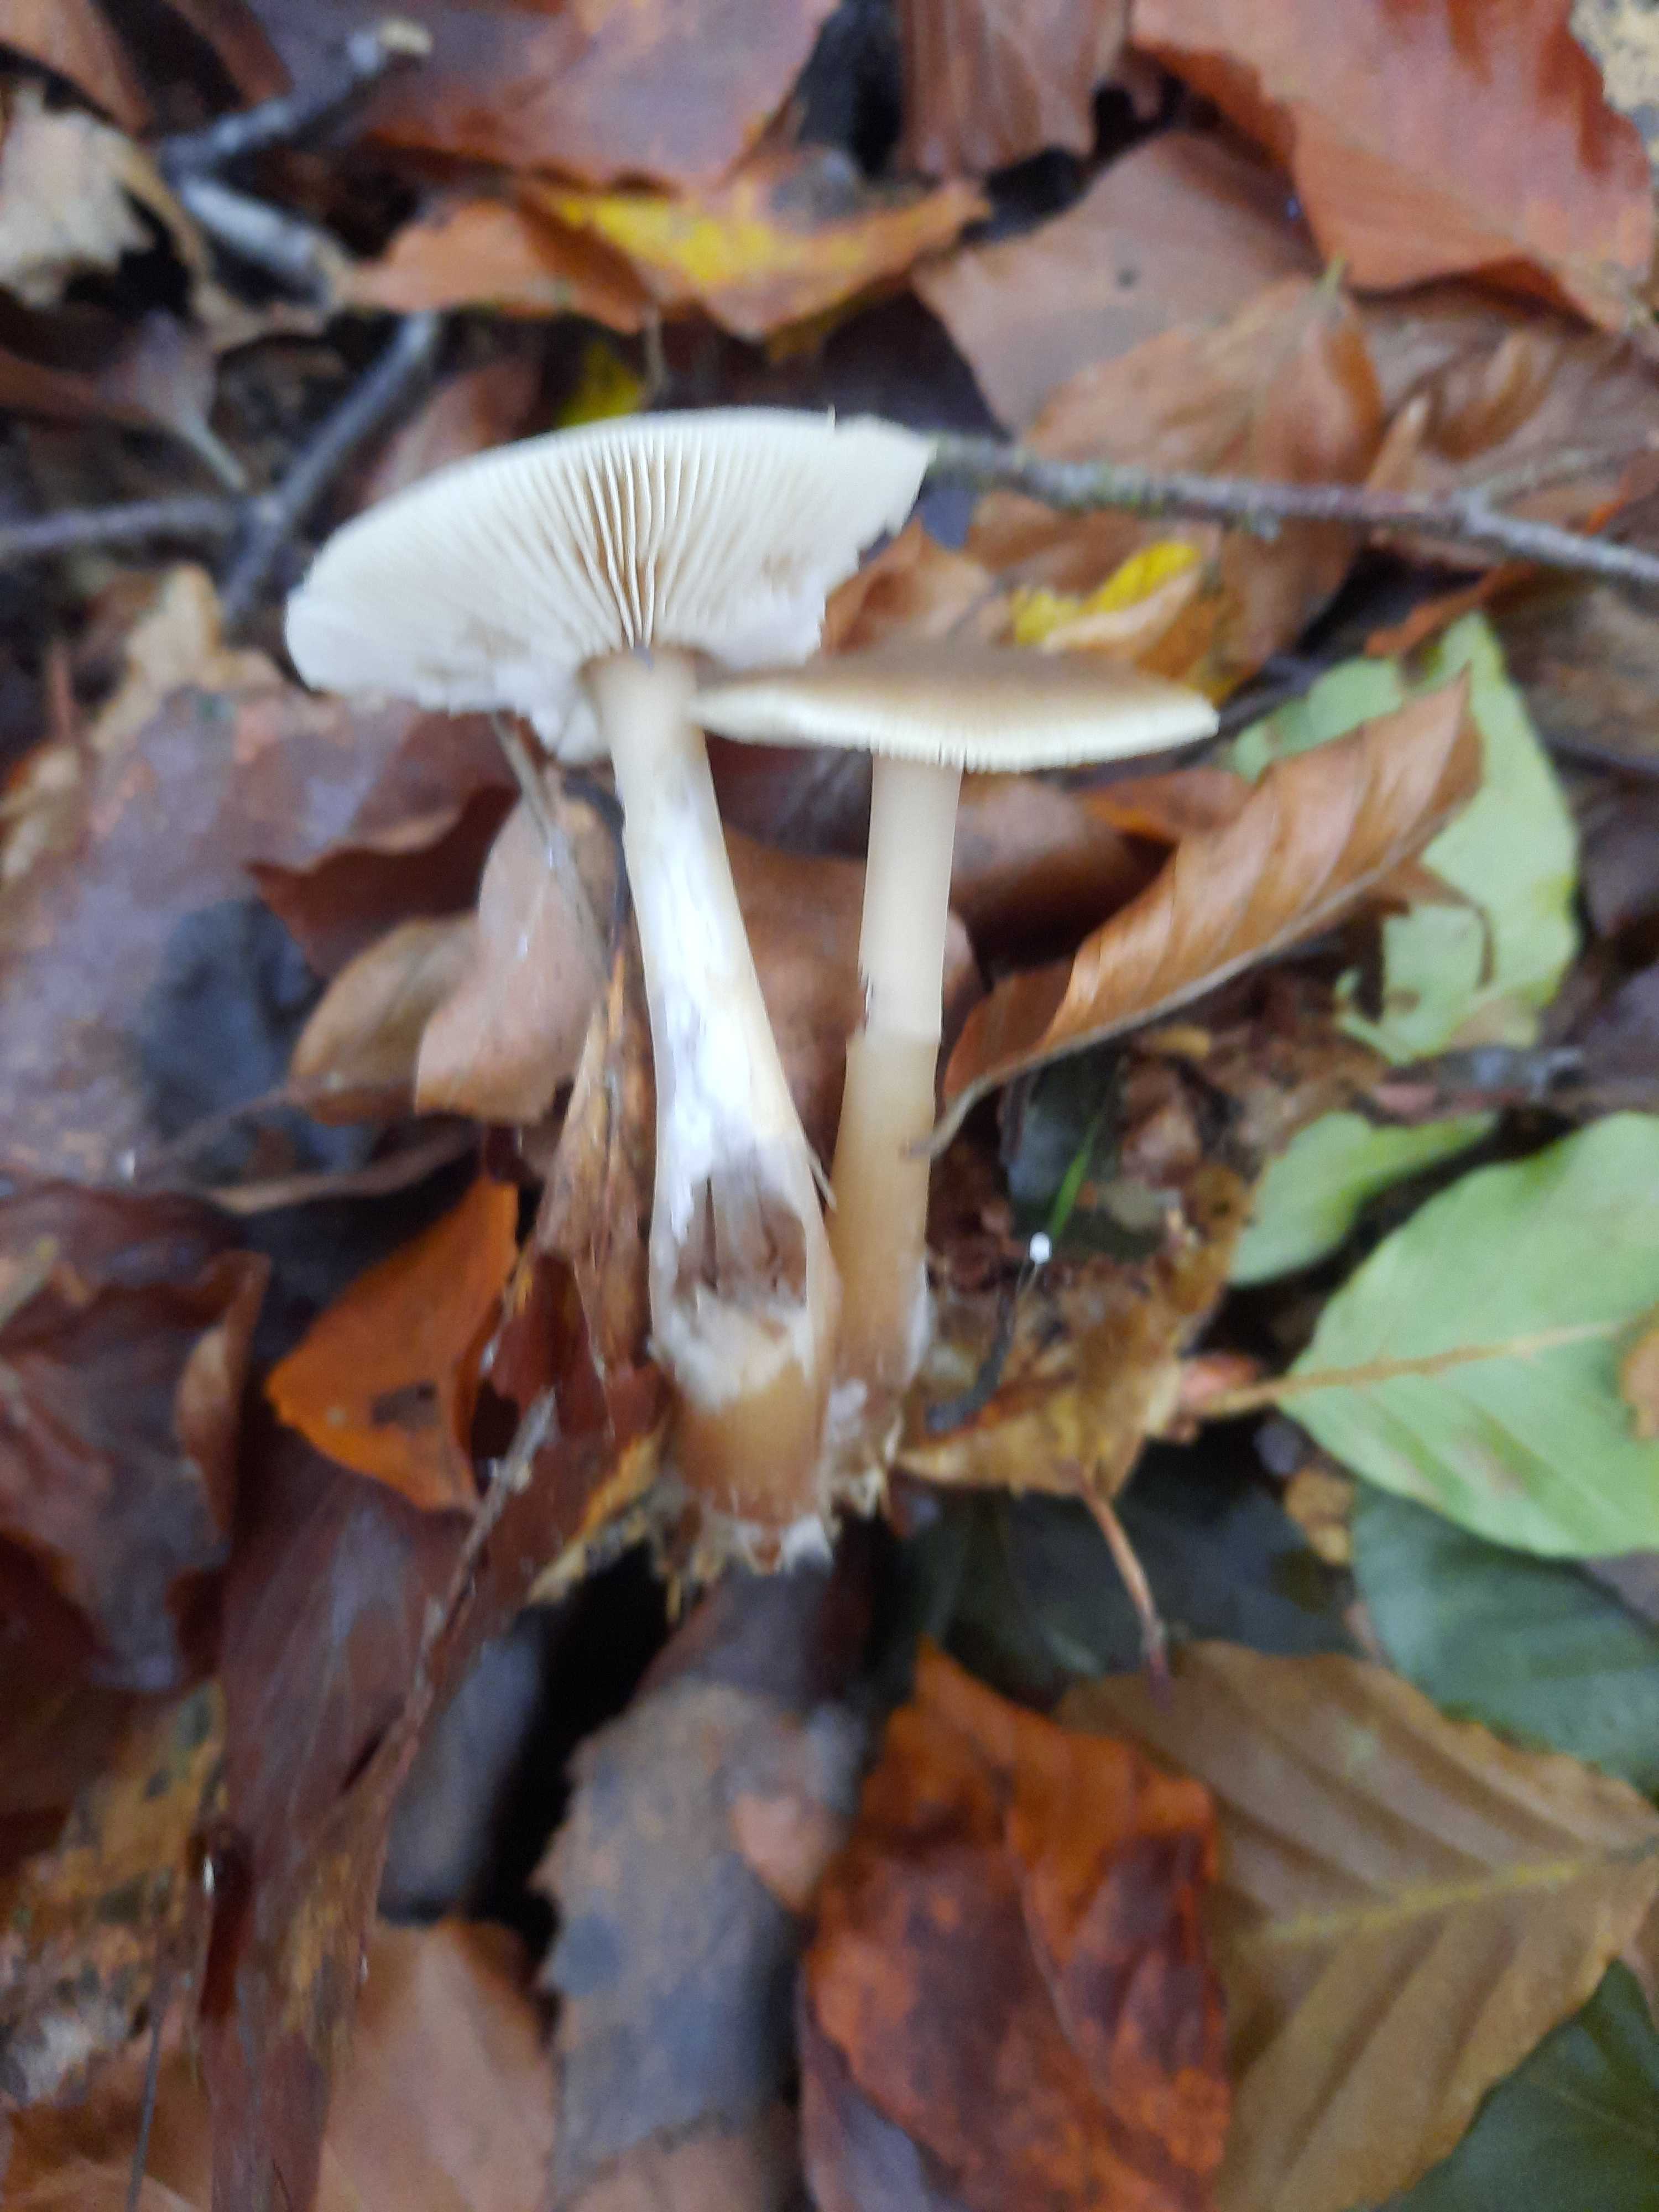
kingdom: Fungi
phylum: Basidiomycota
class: Agaricomycetes
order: Agaricales
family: Omphalotaceae
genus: Rhodocollybia
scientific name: Rhodocollybia asema
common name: horngrå fladhat
